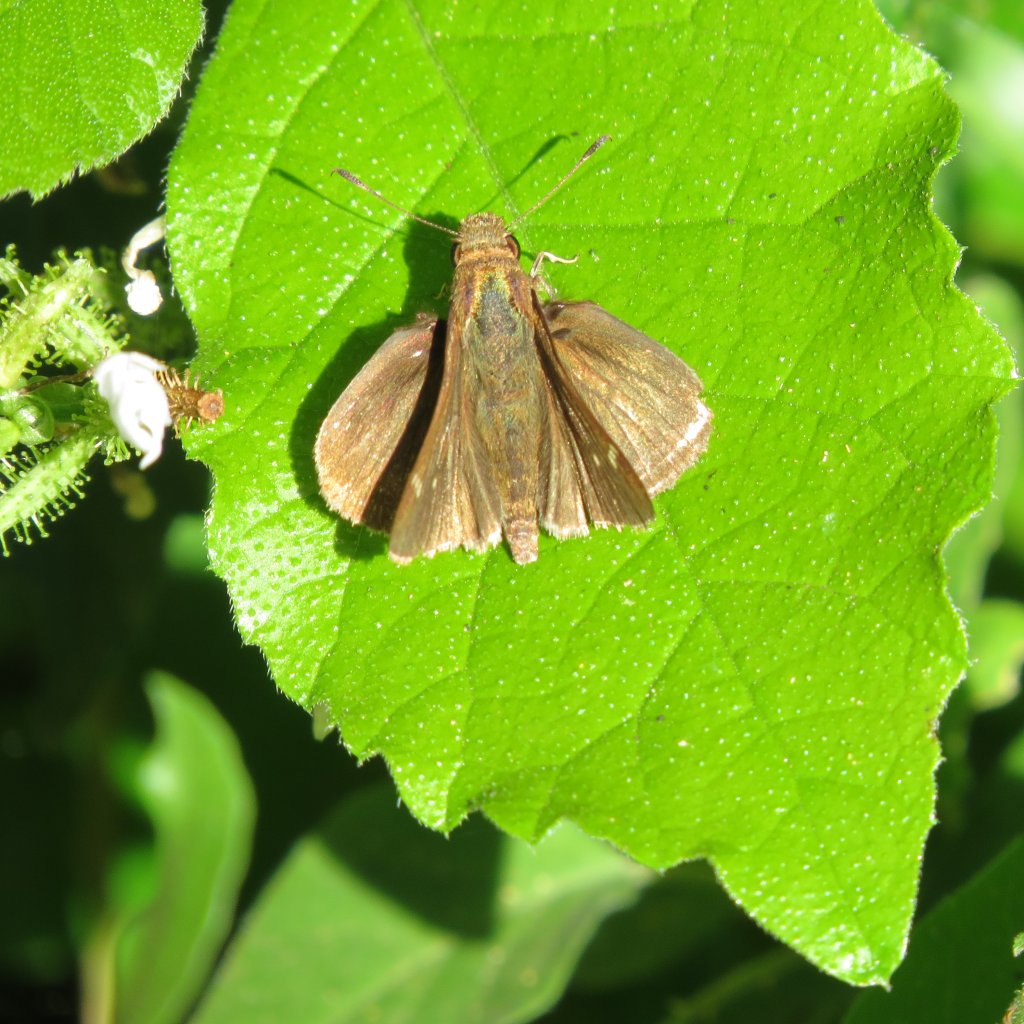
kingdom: Animalia
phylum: Arthropoda
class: Insecta
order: Lepidoptera
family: Hesperiidae
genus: Cymaenes
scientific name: Cymaenes odilia
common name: Fawn-spotted Skipper
